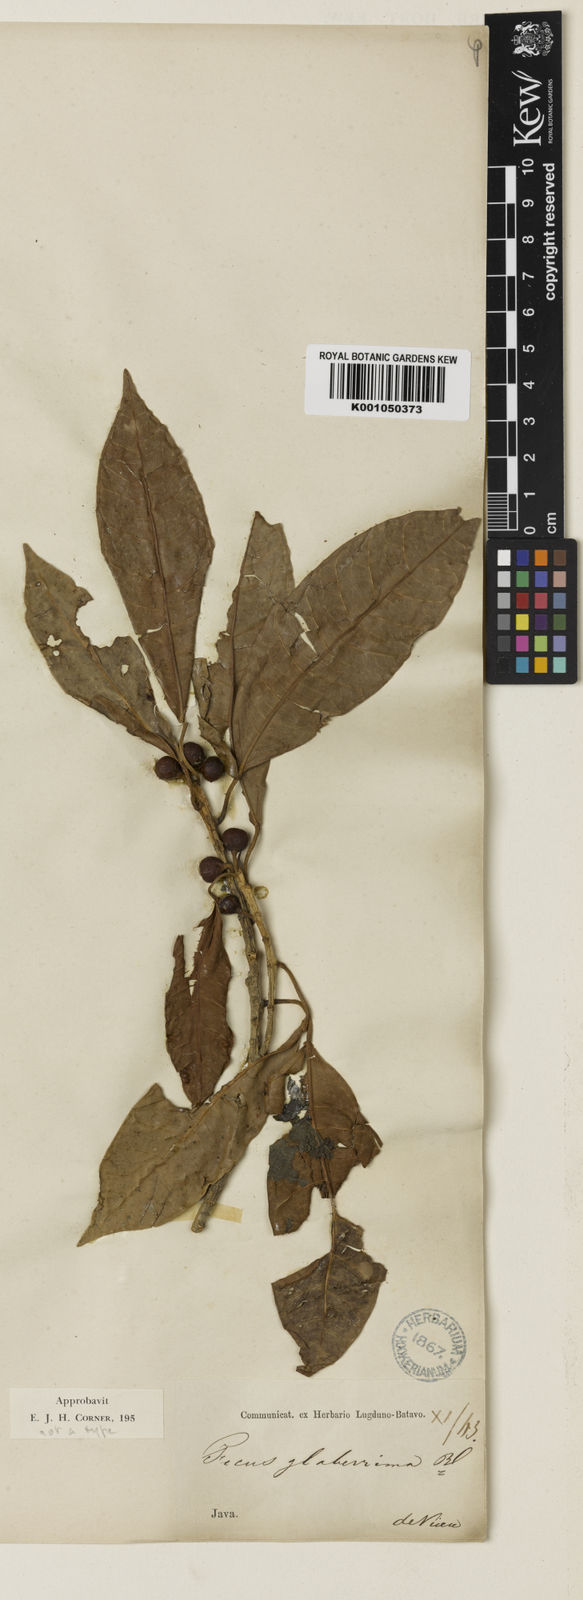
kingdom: Plantae
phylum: Tracheophyta
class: Magnoliopsida
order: Rosales
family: Moraceae
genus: Ficus
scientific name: Ficus glaberrima
